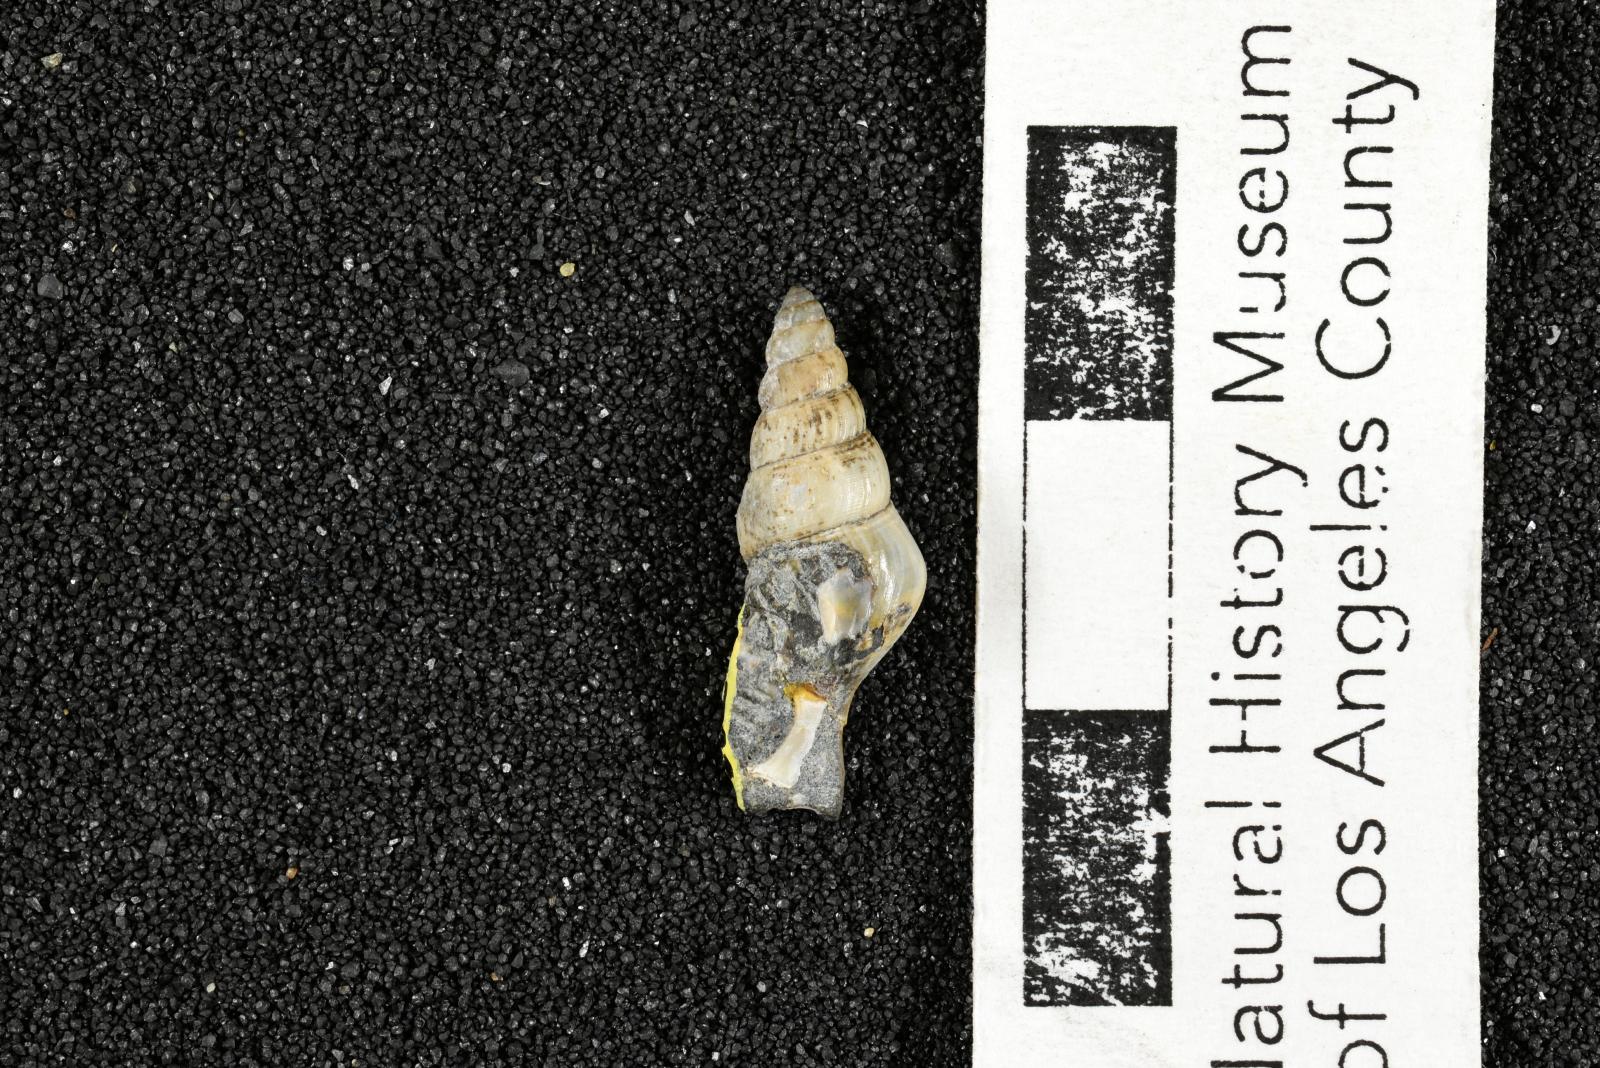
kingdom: Animalia
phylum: Mollusca
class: Gastropoda
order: Littorinimorpha
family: Aporrhaidae
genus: Latiala
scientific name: Latiala heliaca
